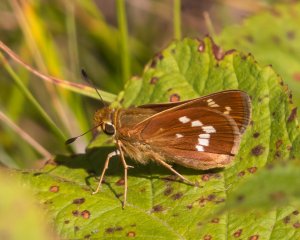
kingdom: Animalia
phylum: Arthropoda
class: Insecta
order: Lepidoptera
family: Hesperiidae
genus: Hesperia
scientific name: Hesperia leonardus
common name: Leonard's Skipper
